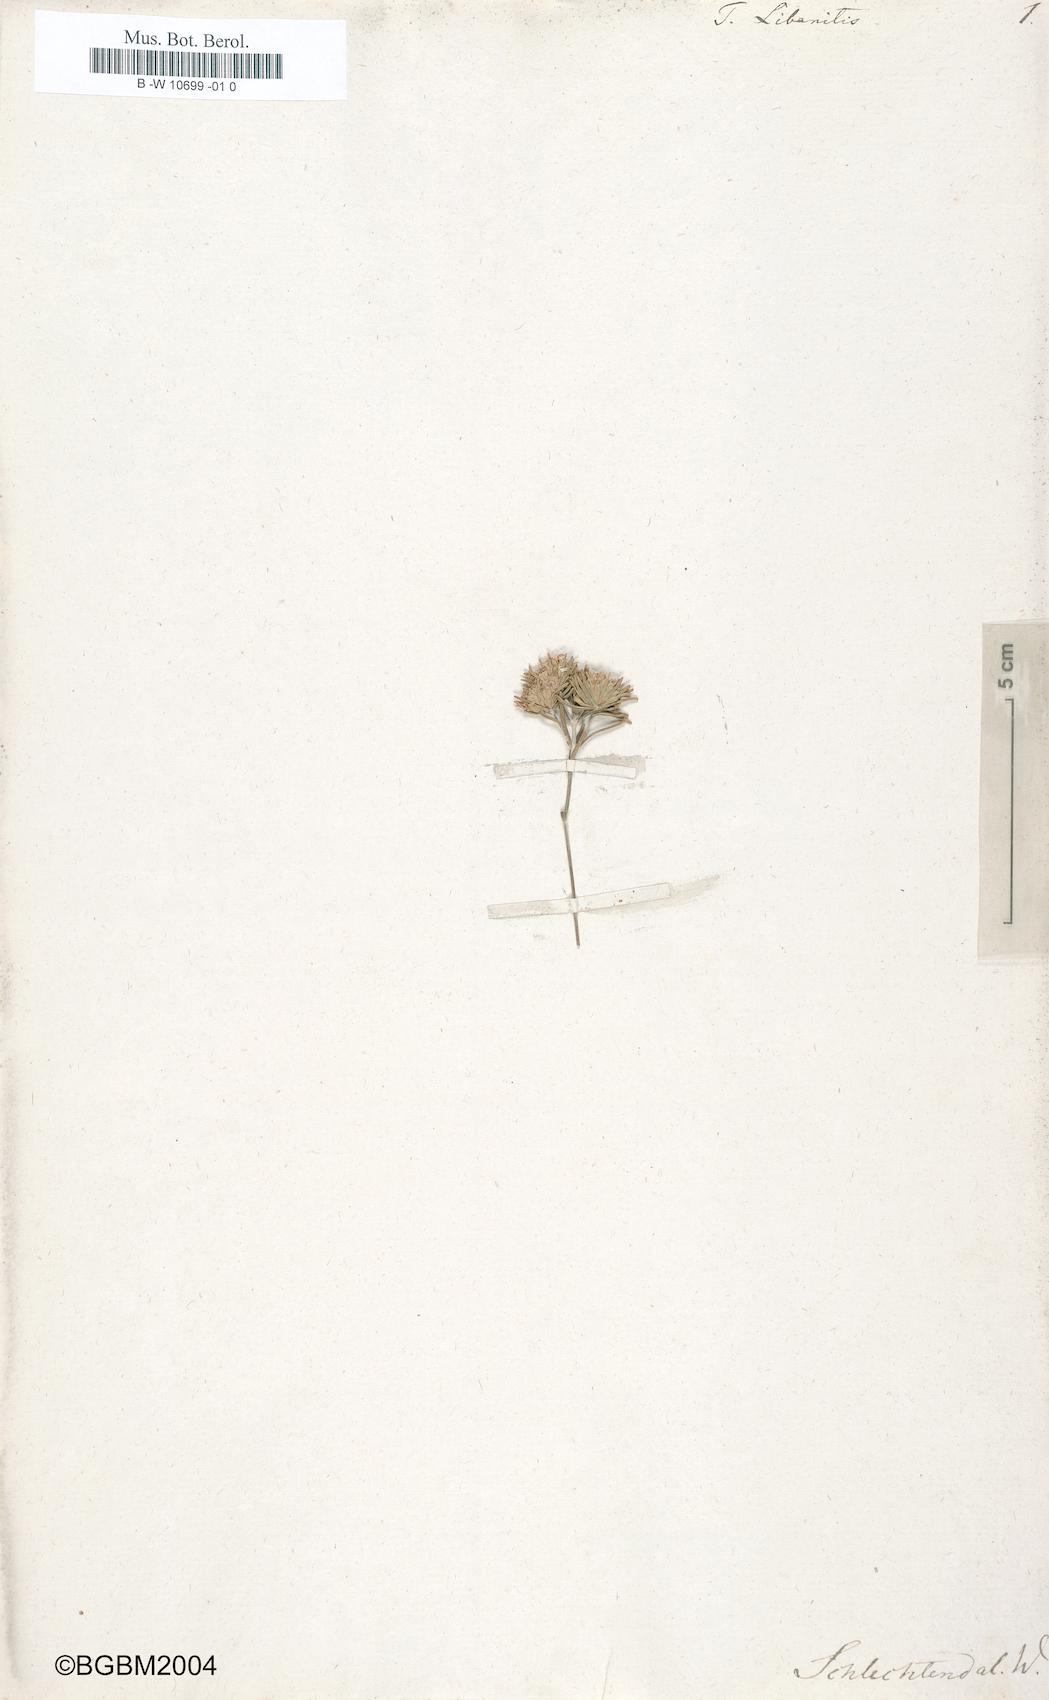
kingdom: Plantae
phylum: Tracheophyta
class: Magnoliopsida
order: Lamiales
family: Lamiaceae
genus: Teucrium
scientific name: Teucrium libanitis
